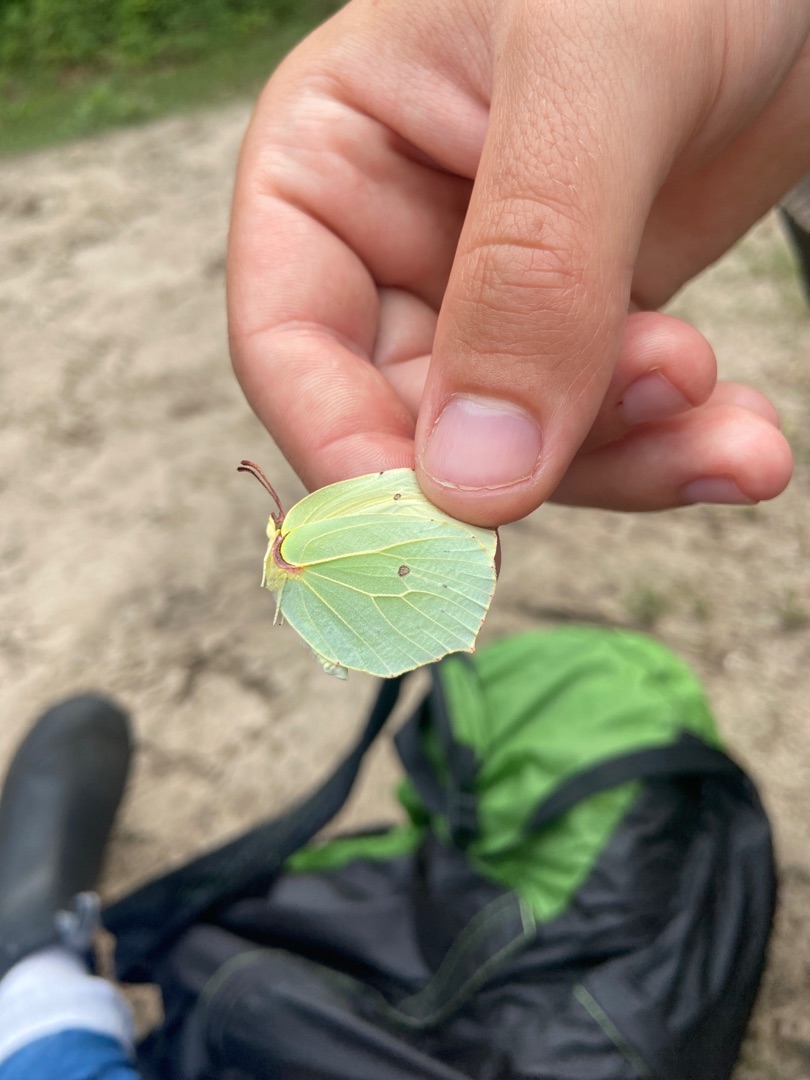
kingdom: Animalia
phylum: Arthropoda
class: Insecta
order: Lepidoptera
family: Pieridae
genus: Gonepteryx
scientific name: Gonepteryx rhamni
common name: Citronsommerfugl
